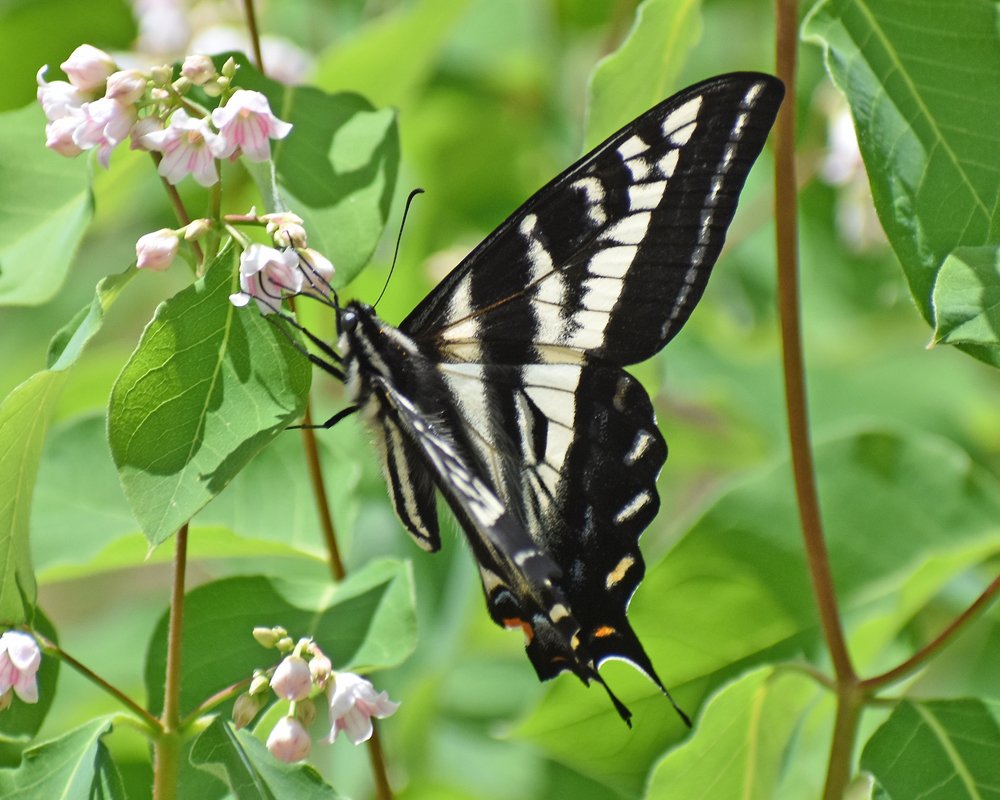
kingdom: Animalia
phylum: Arthropoda
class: Insecta
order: Lepidoptera
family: Papilionidae
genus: Pterourus
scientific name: Pterourus eurymedon
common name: Pale Swallowtail
